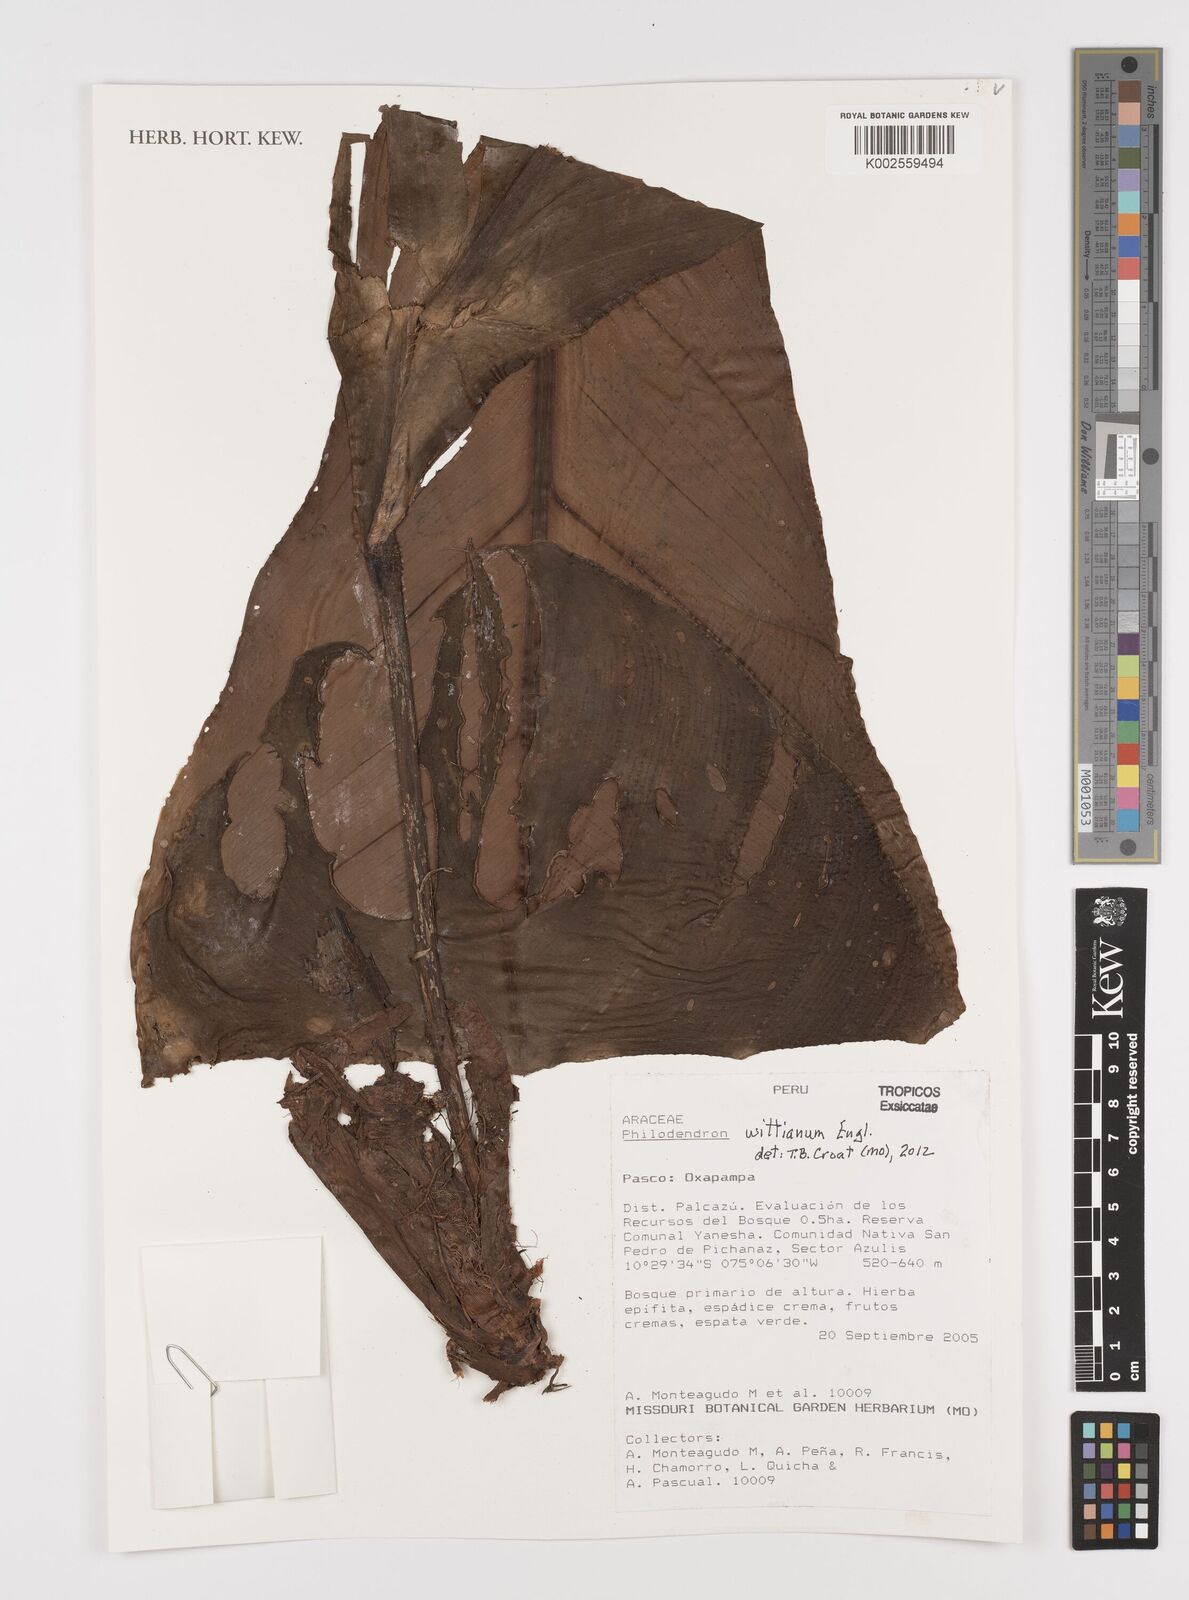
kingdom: Plantae
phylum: Tracheophyta
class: Liliopsida
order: Alismatales
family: Araceae
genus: Philodendron
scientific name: Philodendron wittianum
